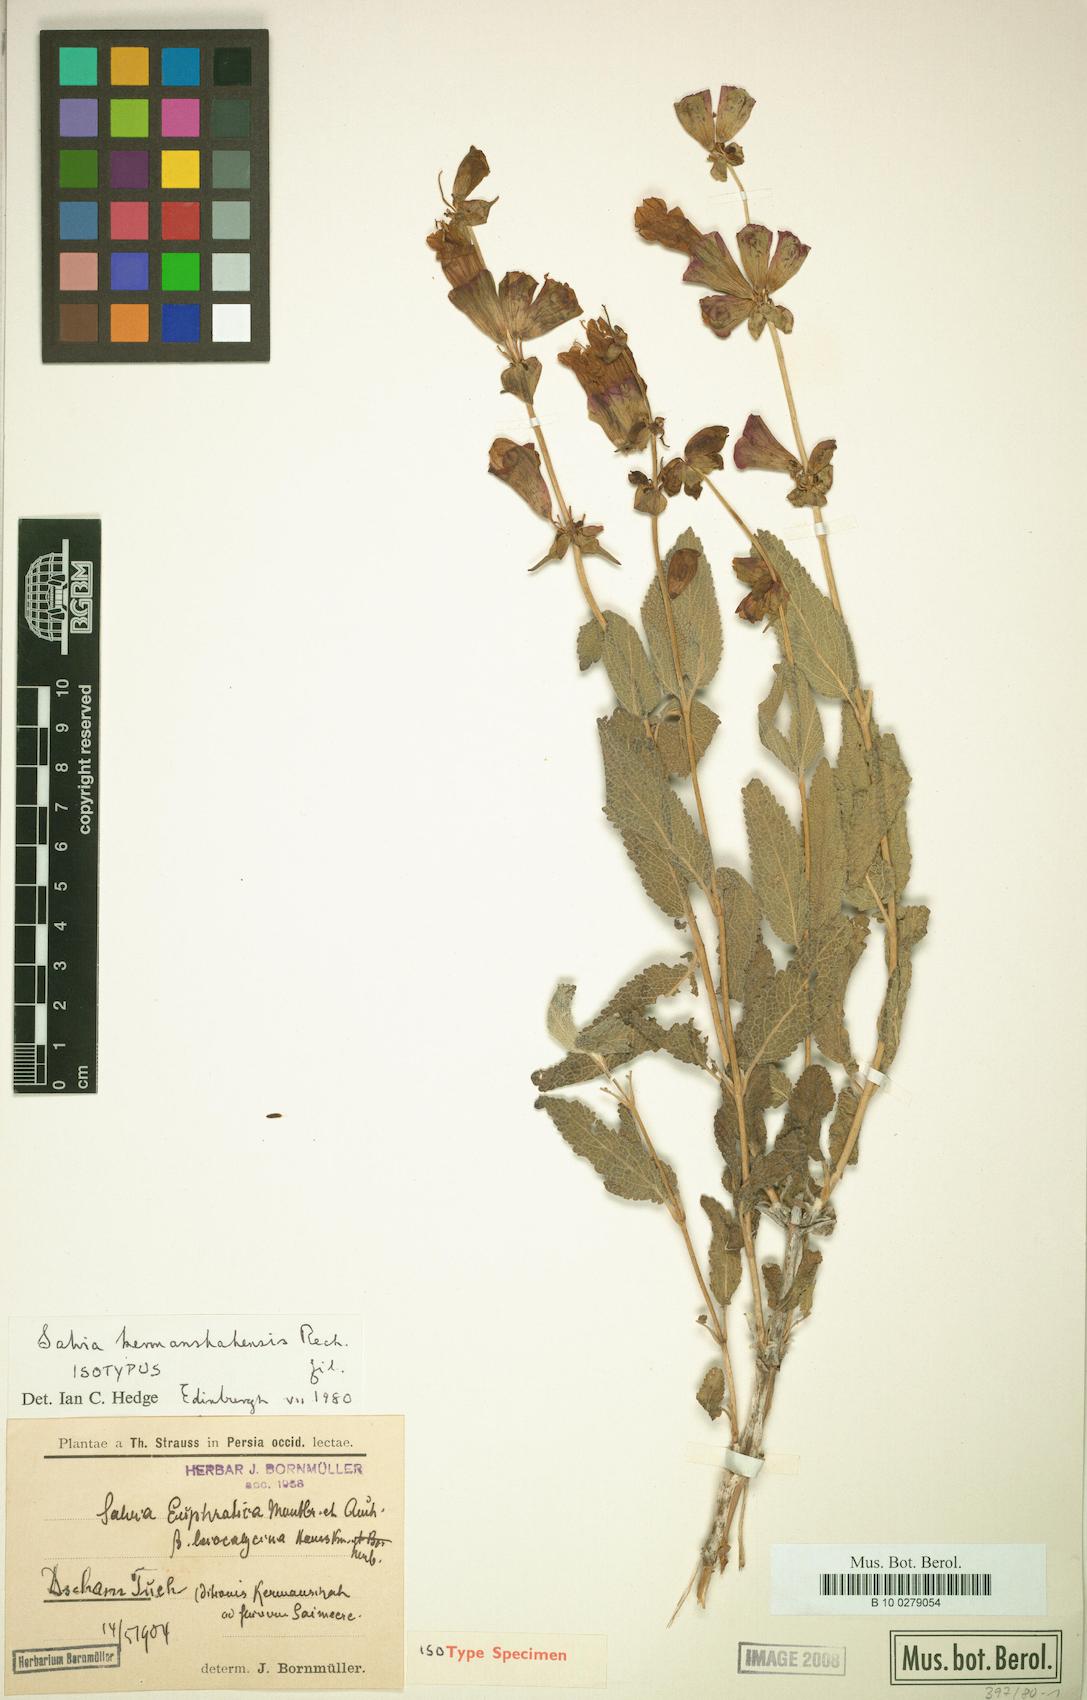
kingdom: Plantae
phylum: Tracheophyta
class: Magnoliopsida
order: Lamiales
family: Lamiaceae
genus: Salvia
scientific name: Salvia kermanshahensis
